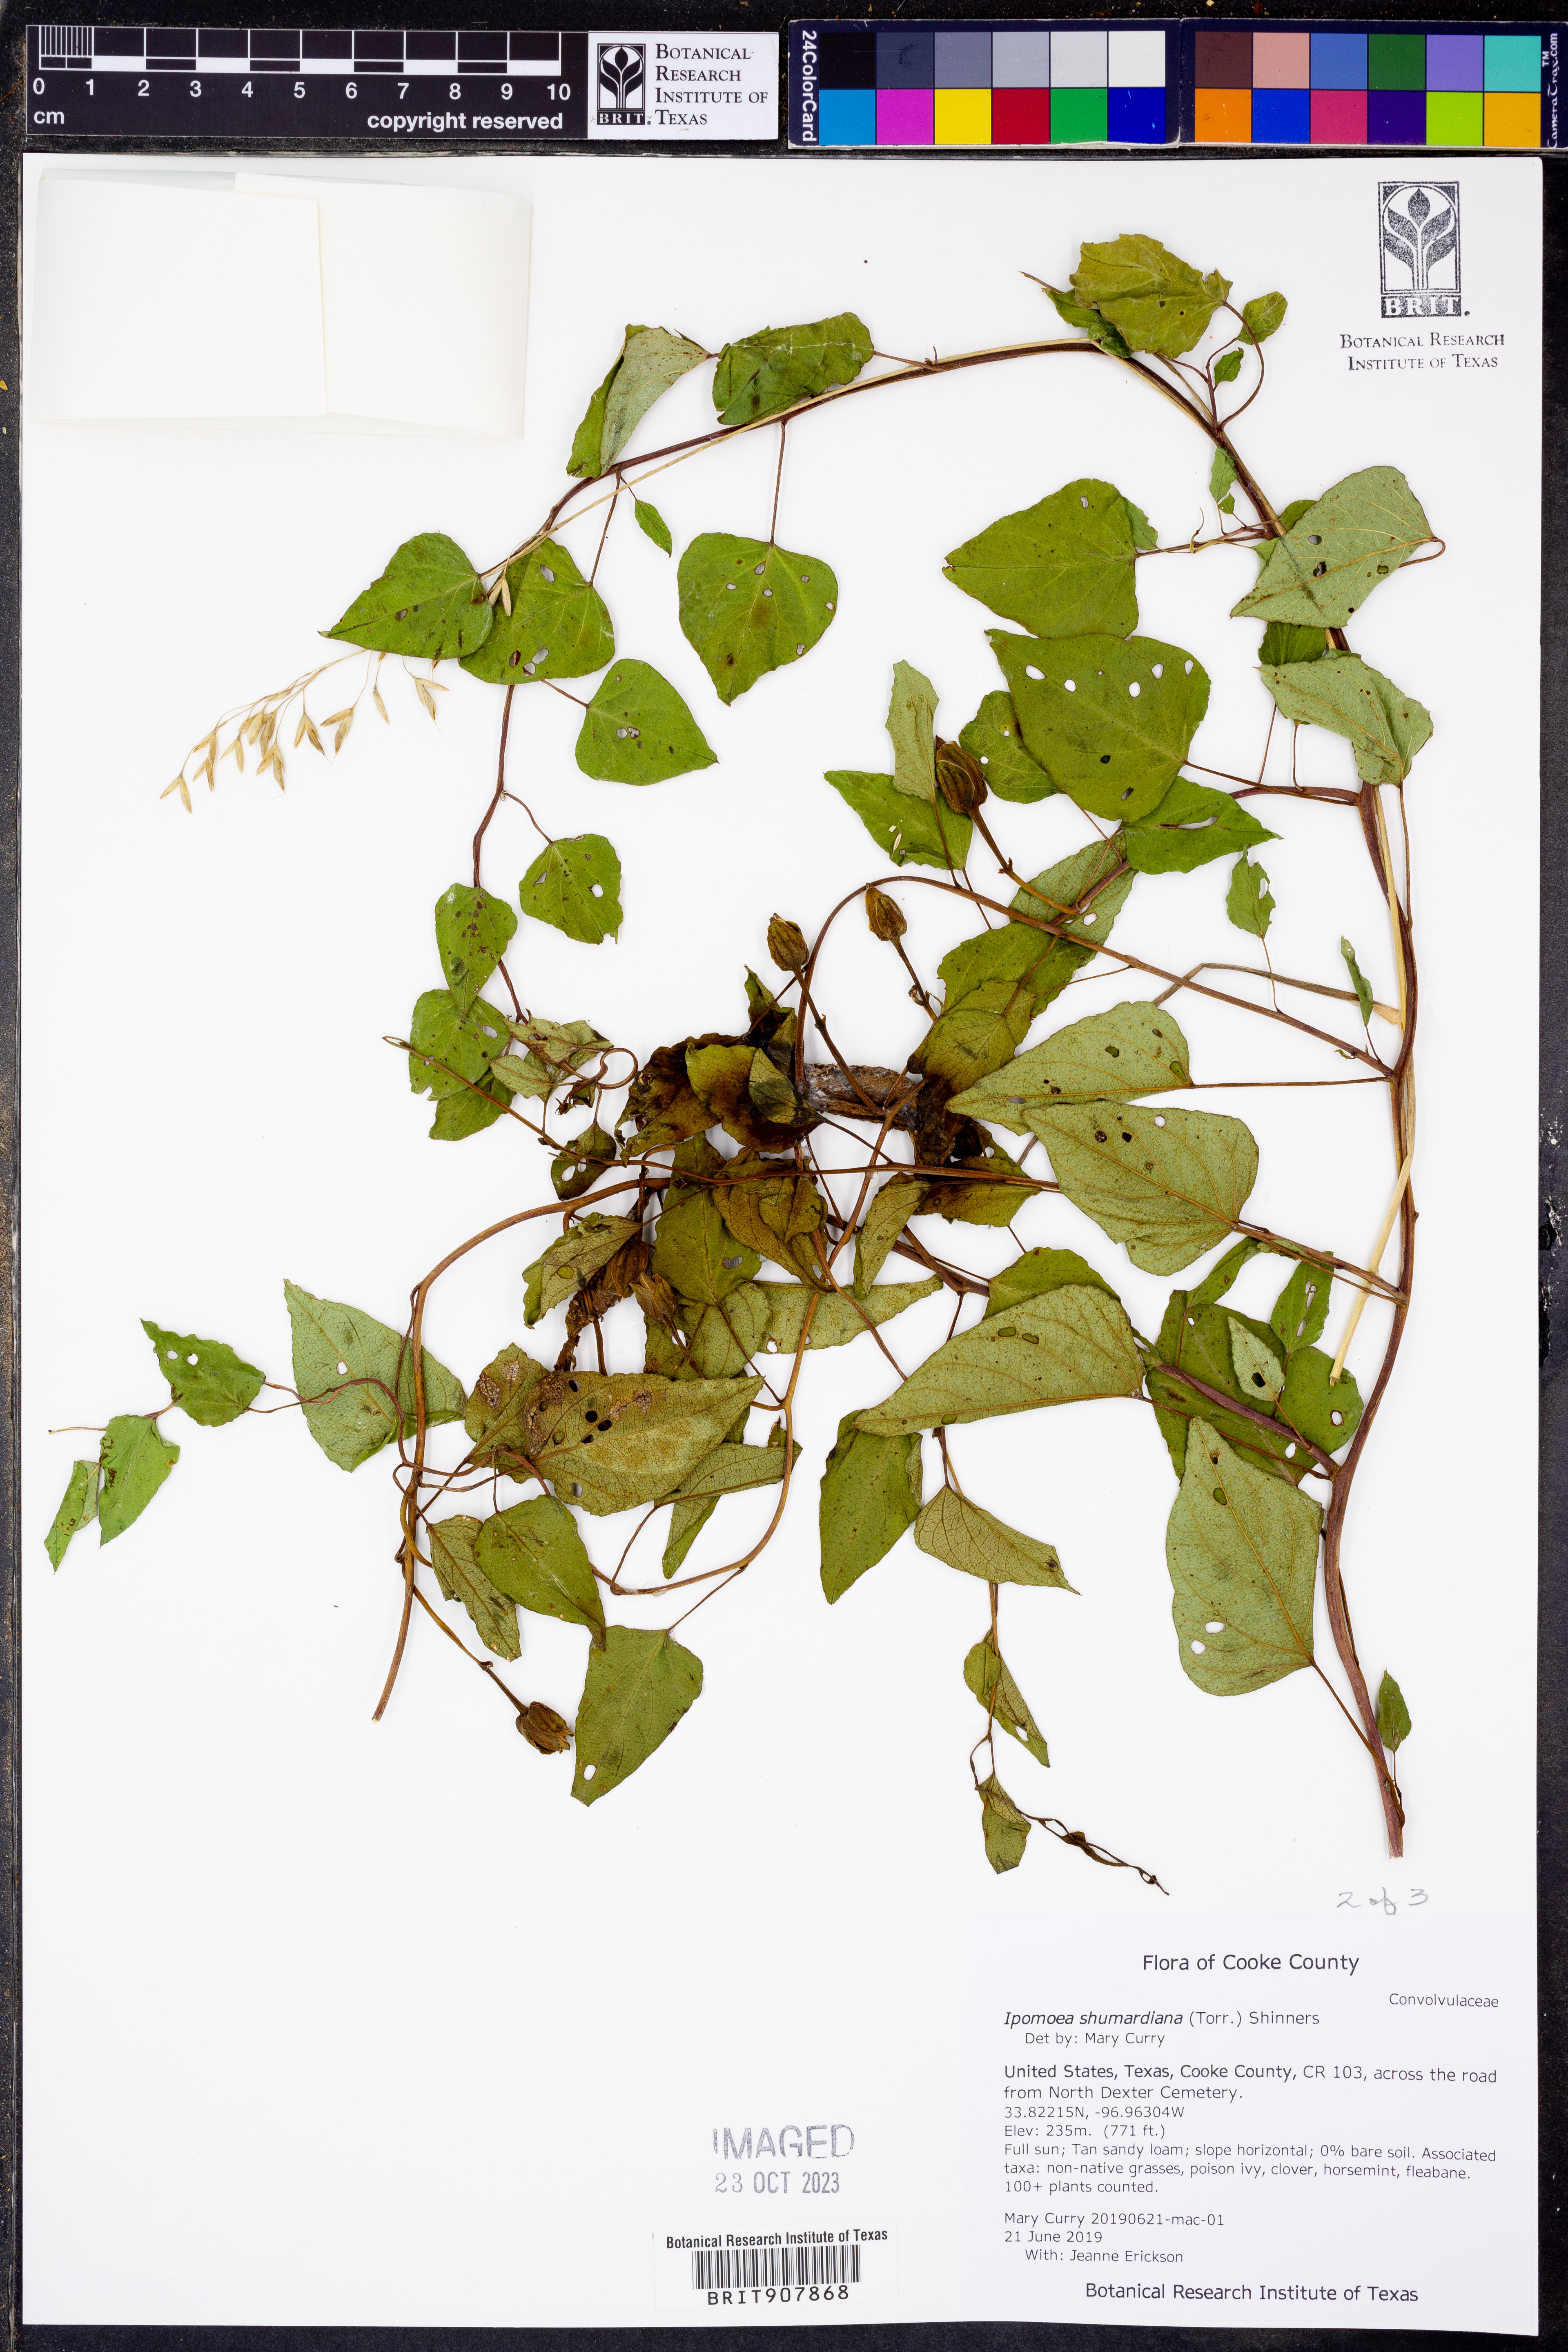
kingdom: Plantae
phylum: Tracheophyta
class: Magnoliopsida
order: Solanales
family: Convolvulaceae
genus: Ipomoea
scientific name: Ipomoea shumardiana
